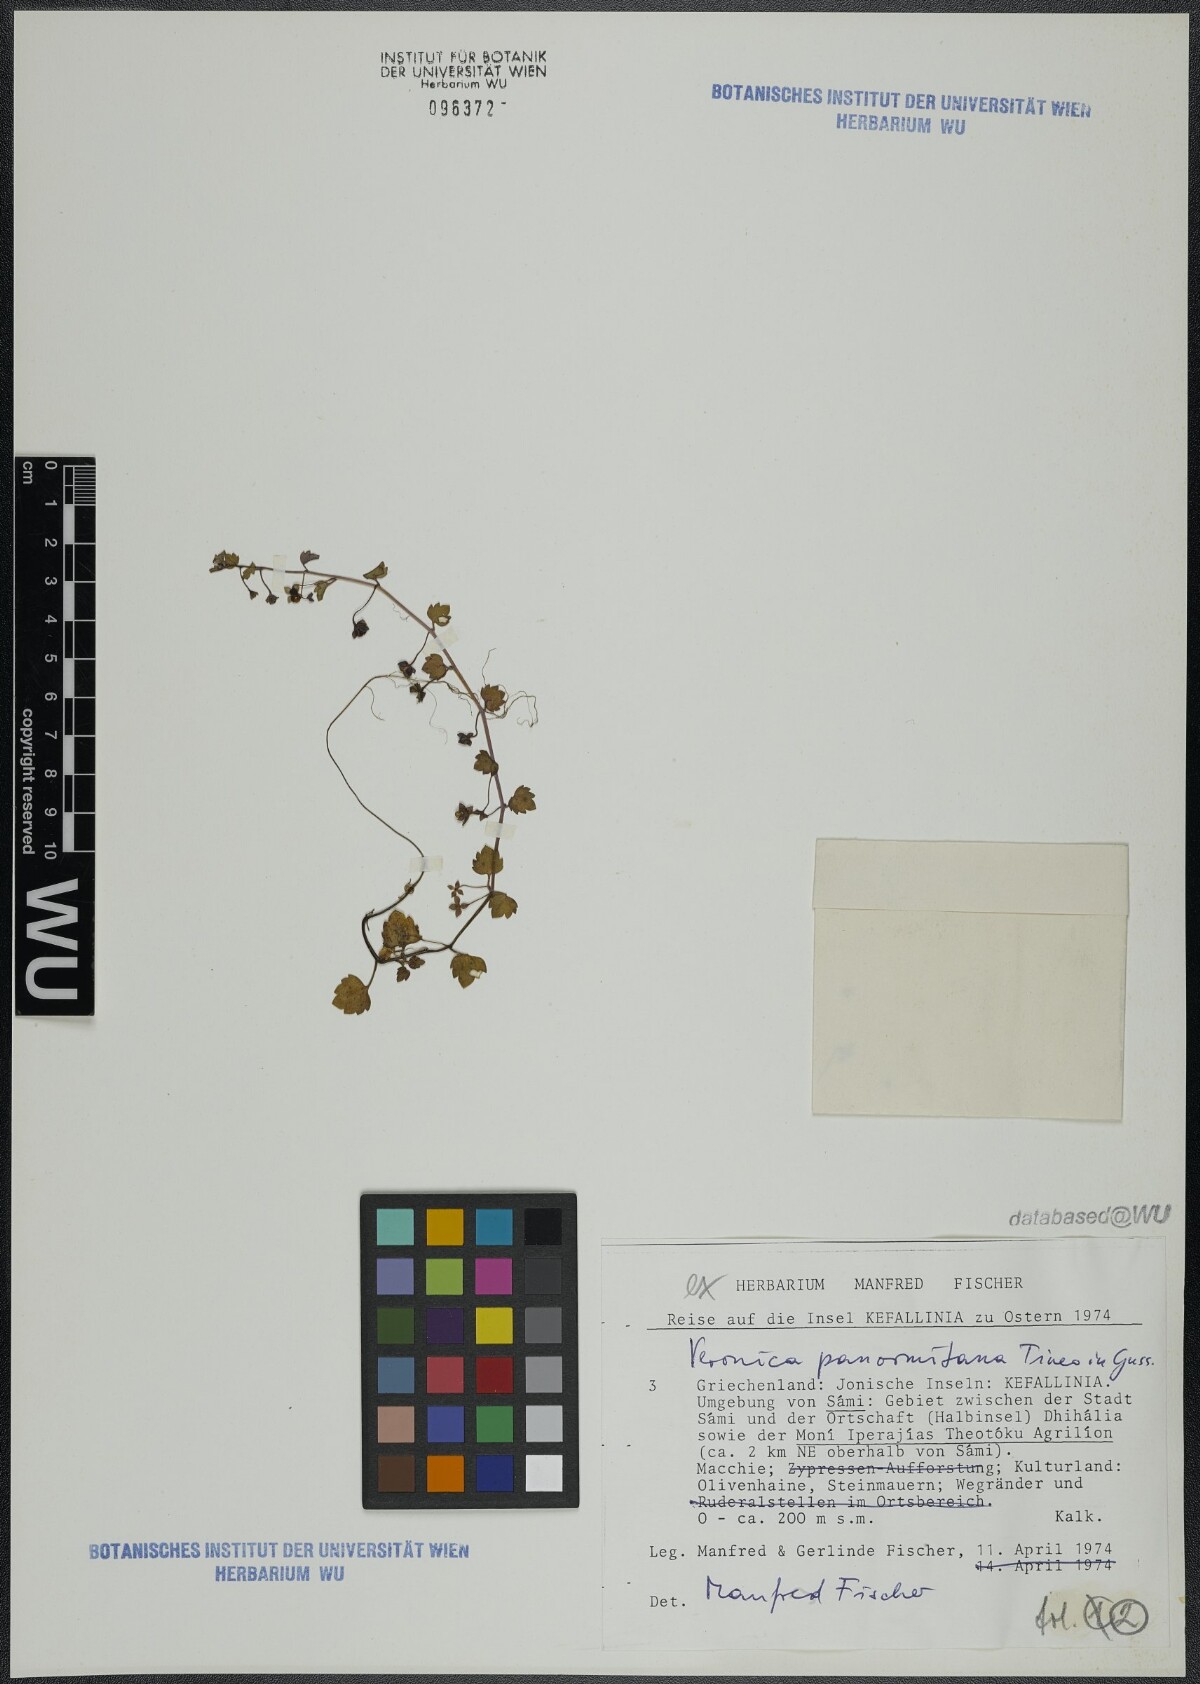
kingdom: Plantae
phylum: Tracheophyta
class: Magnoliopsida
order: Lamiales
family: Plantaginaceae
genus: Veronica
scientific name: Veronica panormitana
